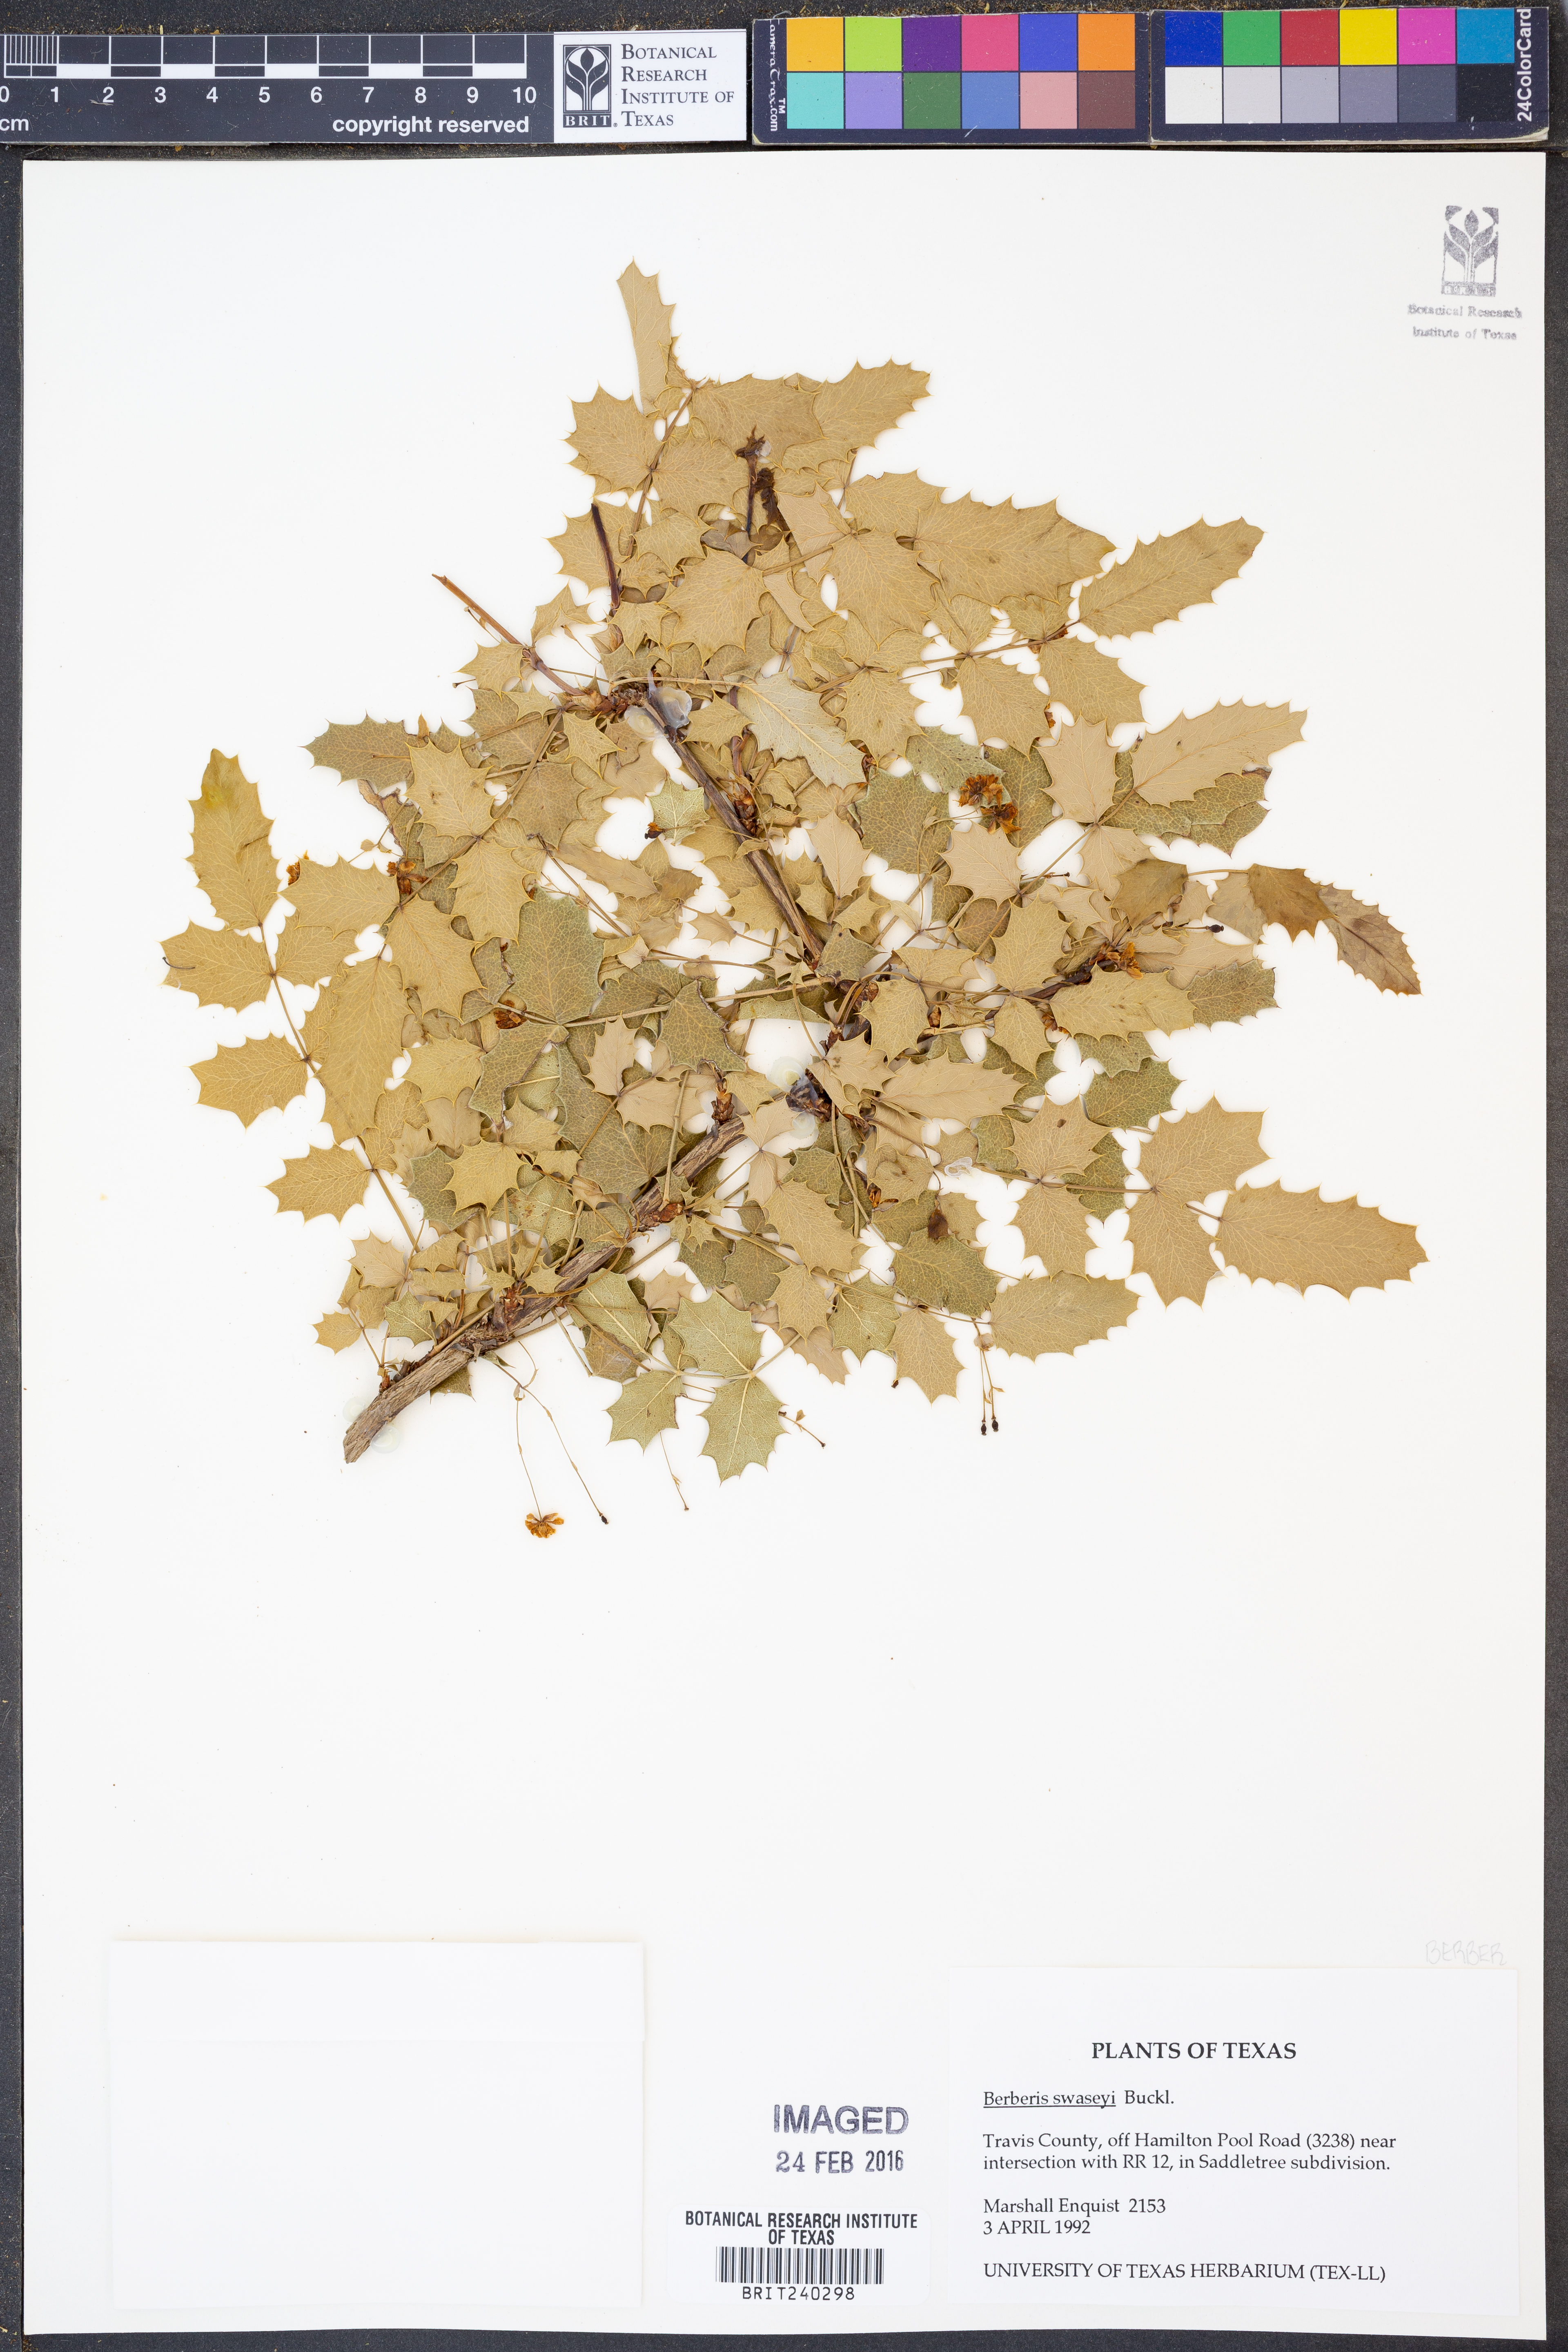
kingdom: Plantae
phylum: Tracheophyta
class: Magnoliopsida
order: Ranunculales
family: Berberidaceae
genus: Berberis
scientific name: Berberis swaseyi
